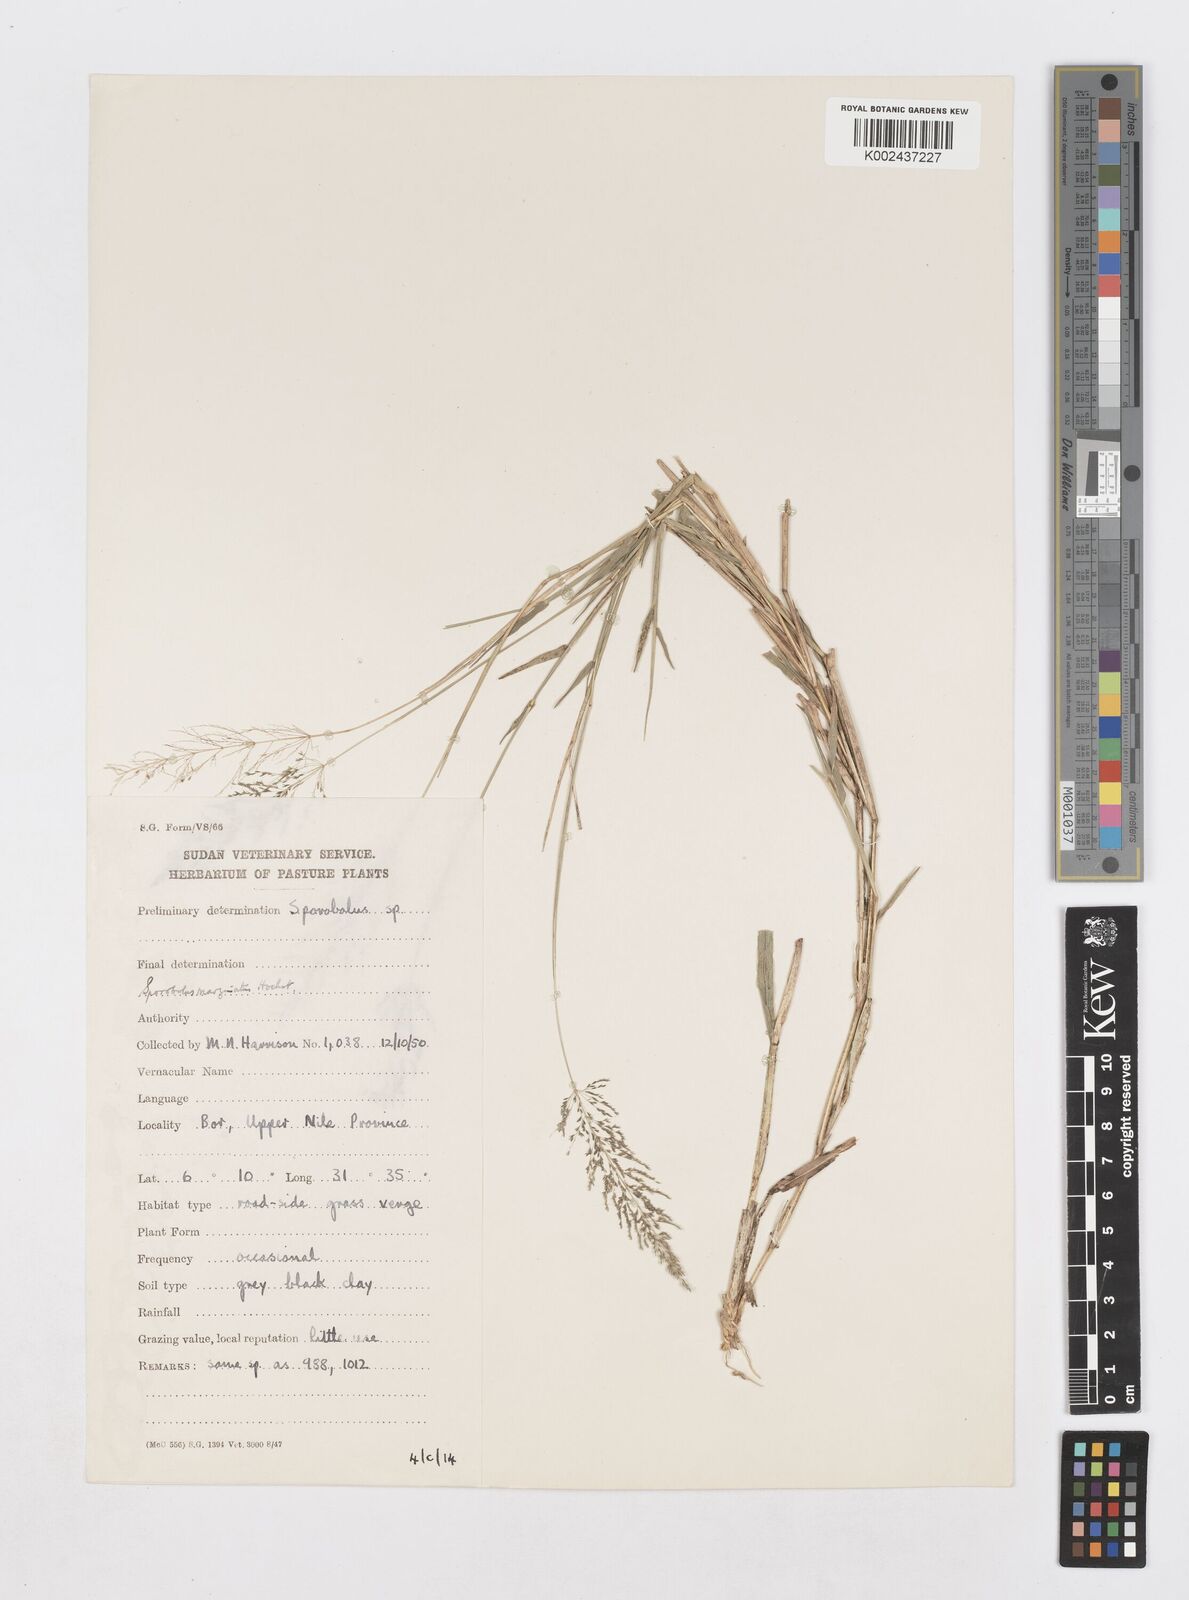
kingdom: Plantae
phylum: Tracheophyta
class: Liliopsida
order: Poales
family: Poaceae
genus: Sporobolus
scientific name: Sporobolus ioclados
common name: Pan dropseed
